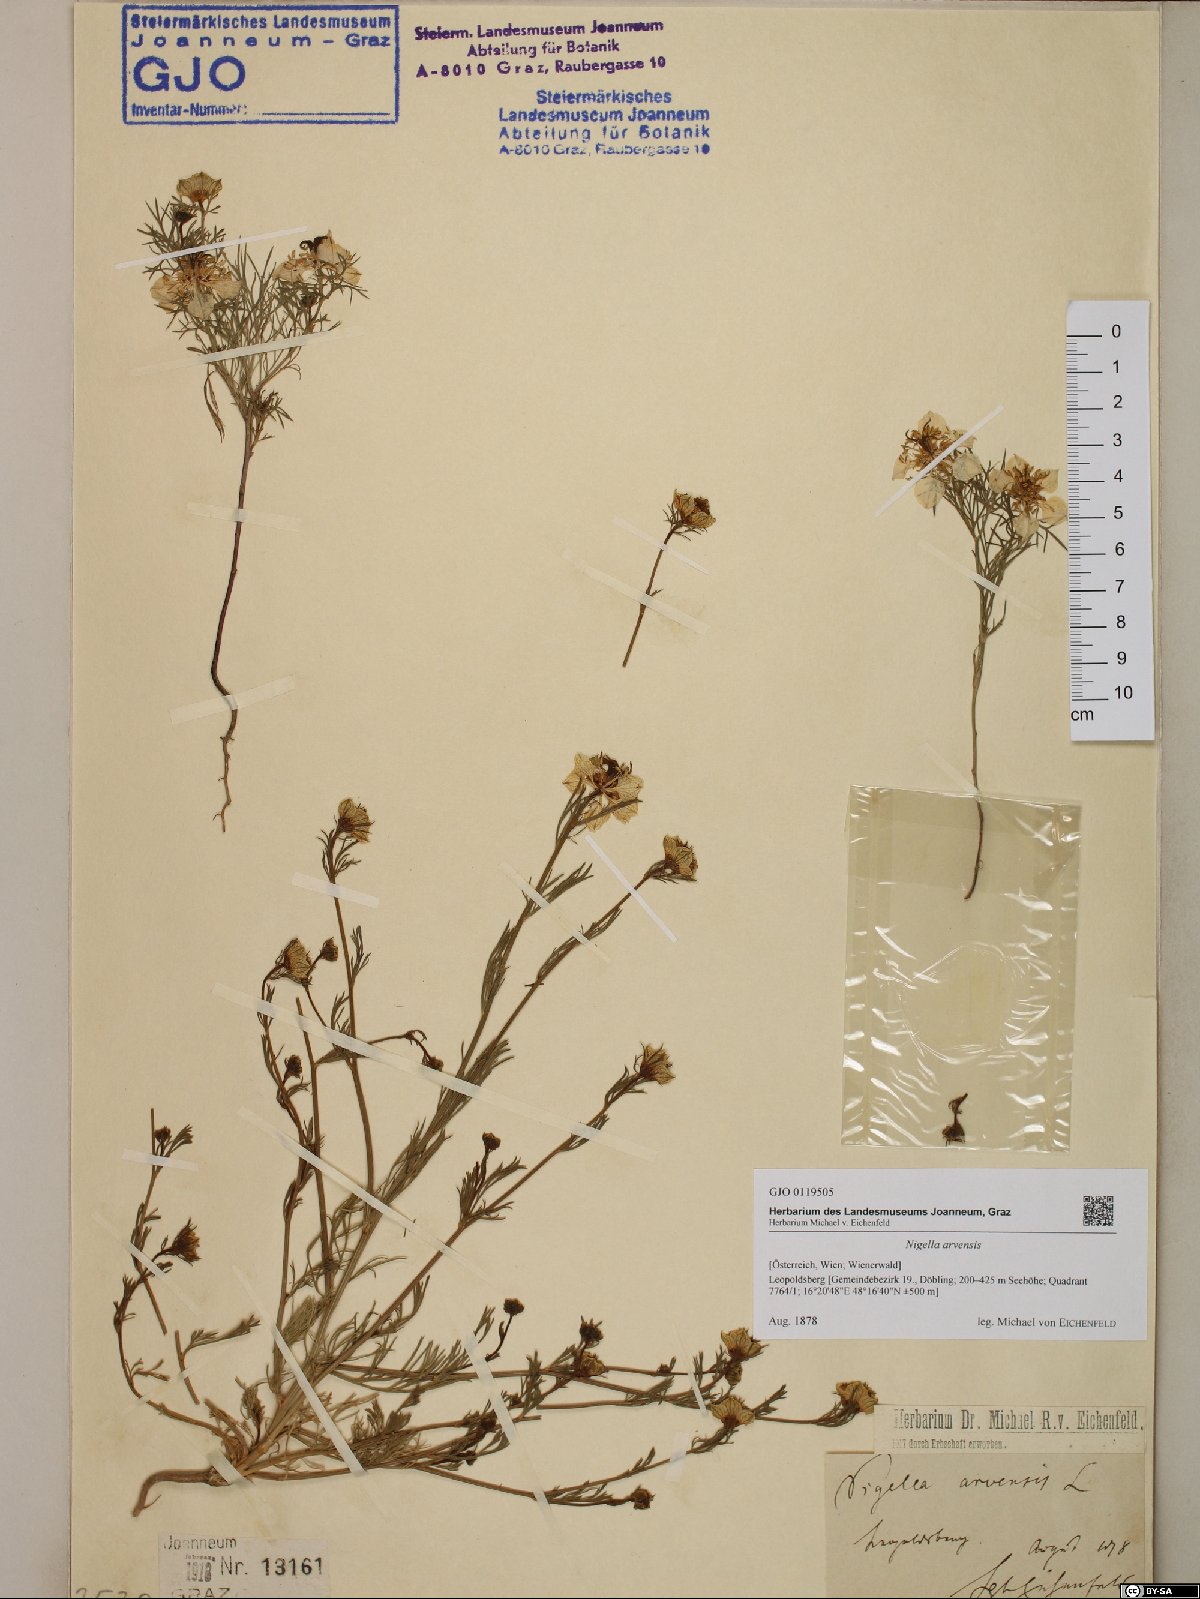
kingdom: Plantae
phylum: Tracheophyta
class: Magnoliopsida
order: Ranunculales
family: Ranunculaceae
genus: Nigella
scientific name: Nigella arvensis
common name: Wild fennel-flower
